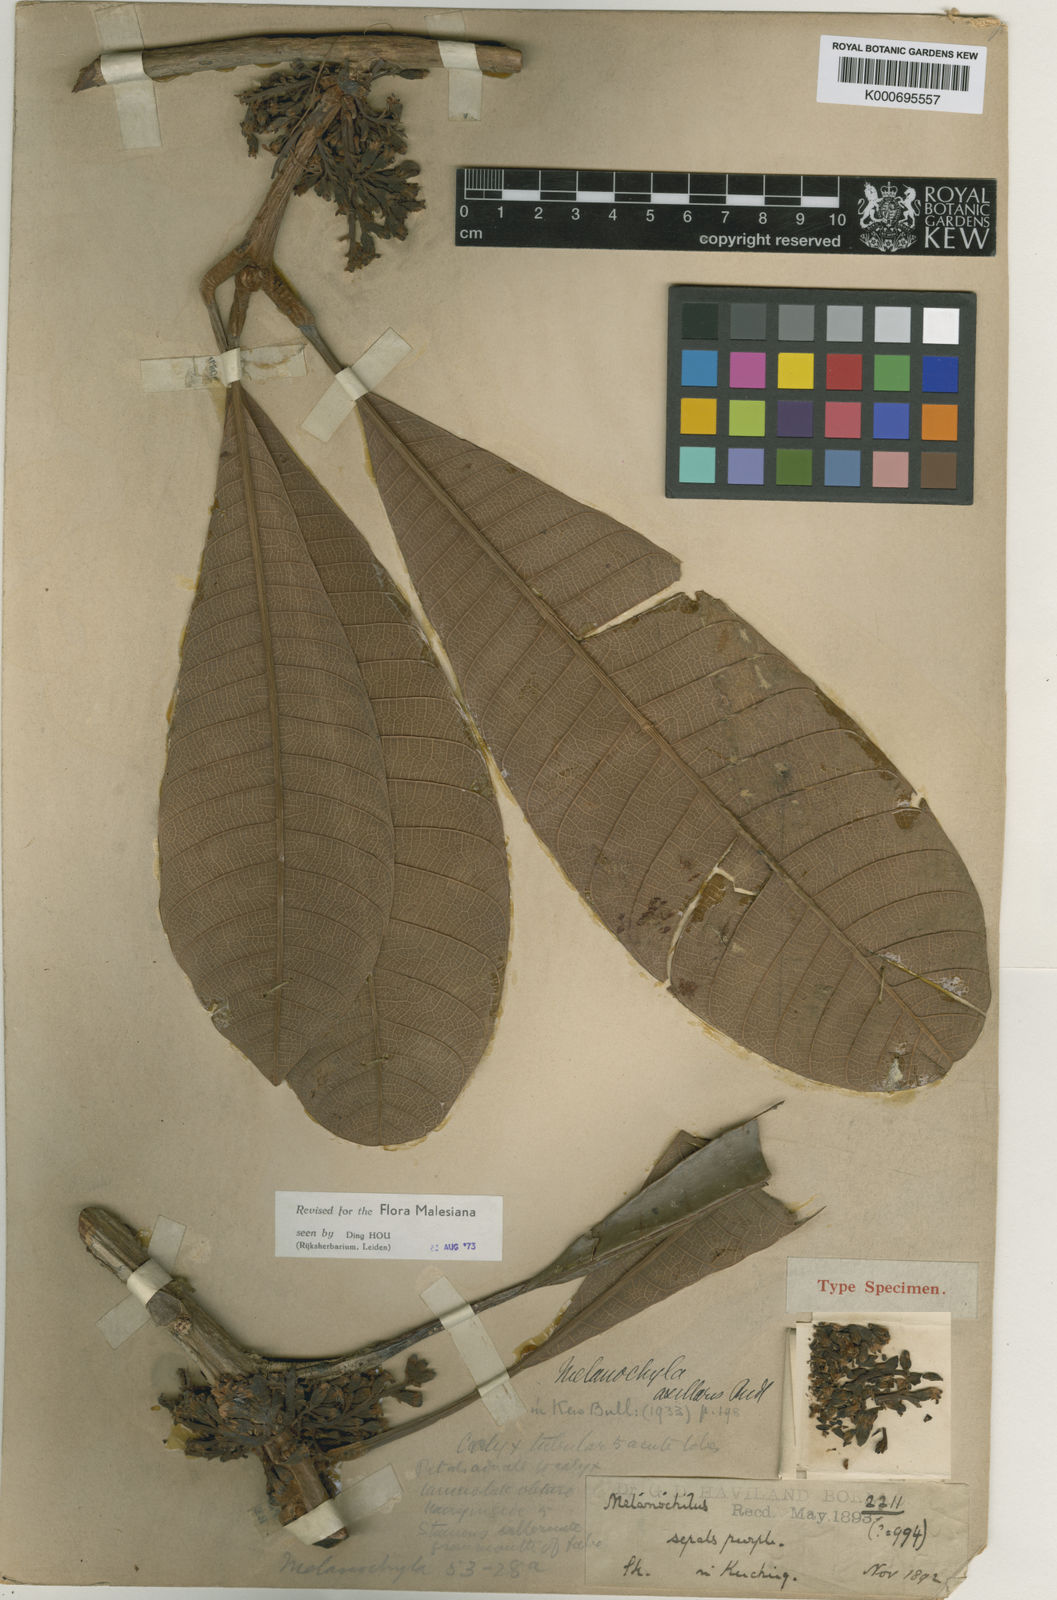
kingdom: Plantae
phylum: Tracheophyta
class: Magnoliopsida
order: Sapindales
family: Anacardiaceae
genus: Melanochyla
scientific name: Melanochyla axillaris
